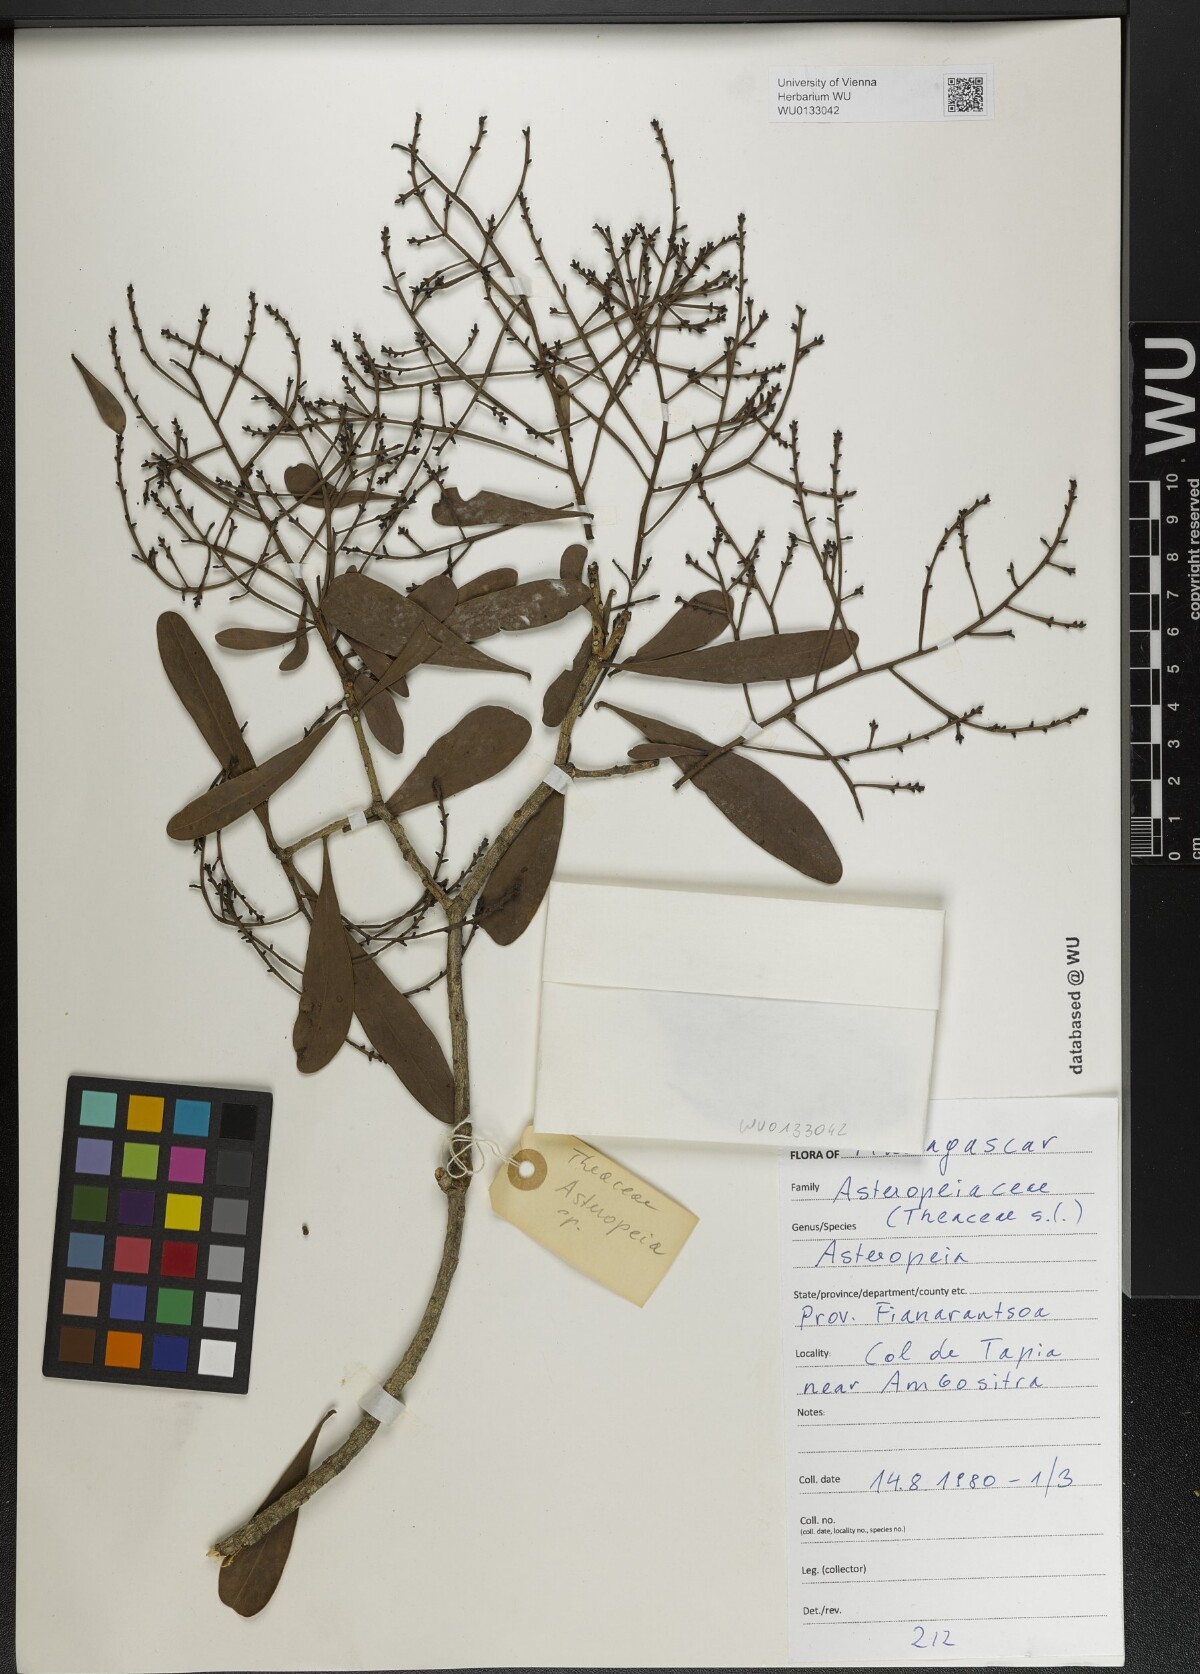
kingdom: Plantae
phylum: Tracheophyta
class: Magnoliopsida
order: Caryophyllales
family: Asteropeiaceae
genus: Asteropeia
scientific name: Asteropeia
